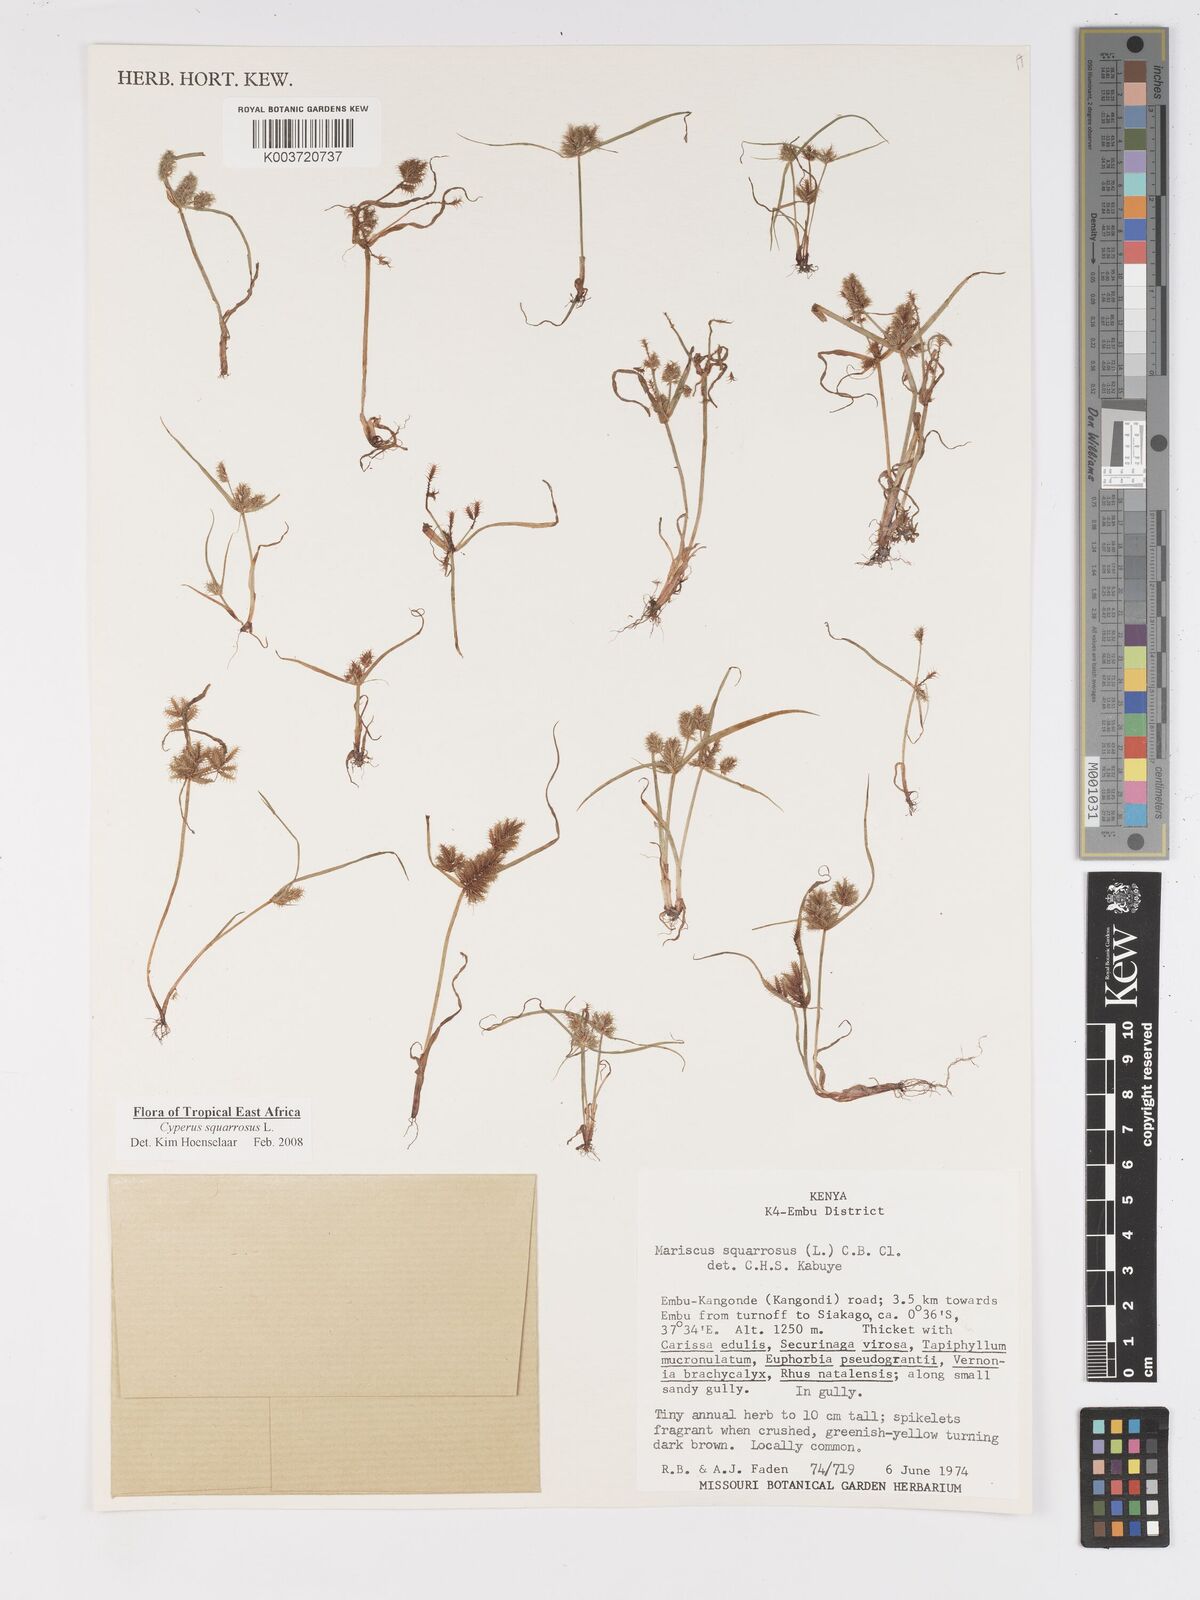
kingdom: Plantae
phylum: Tracheophyta
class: Liliopsida
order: Poales
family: Cyperaceae
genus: Cyperus
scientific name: Cyperus squarrosus
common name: Awned cyperus
